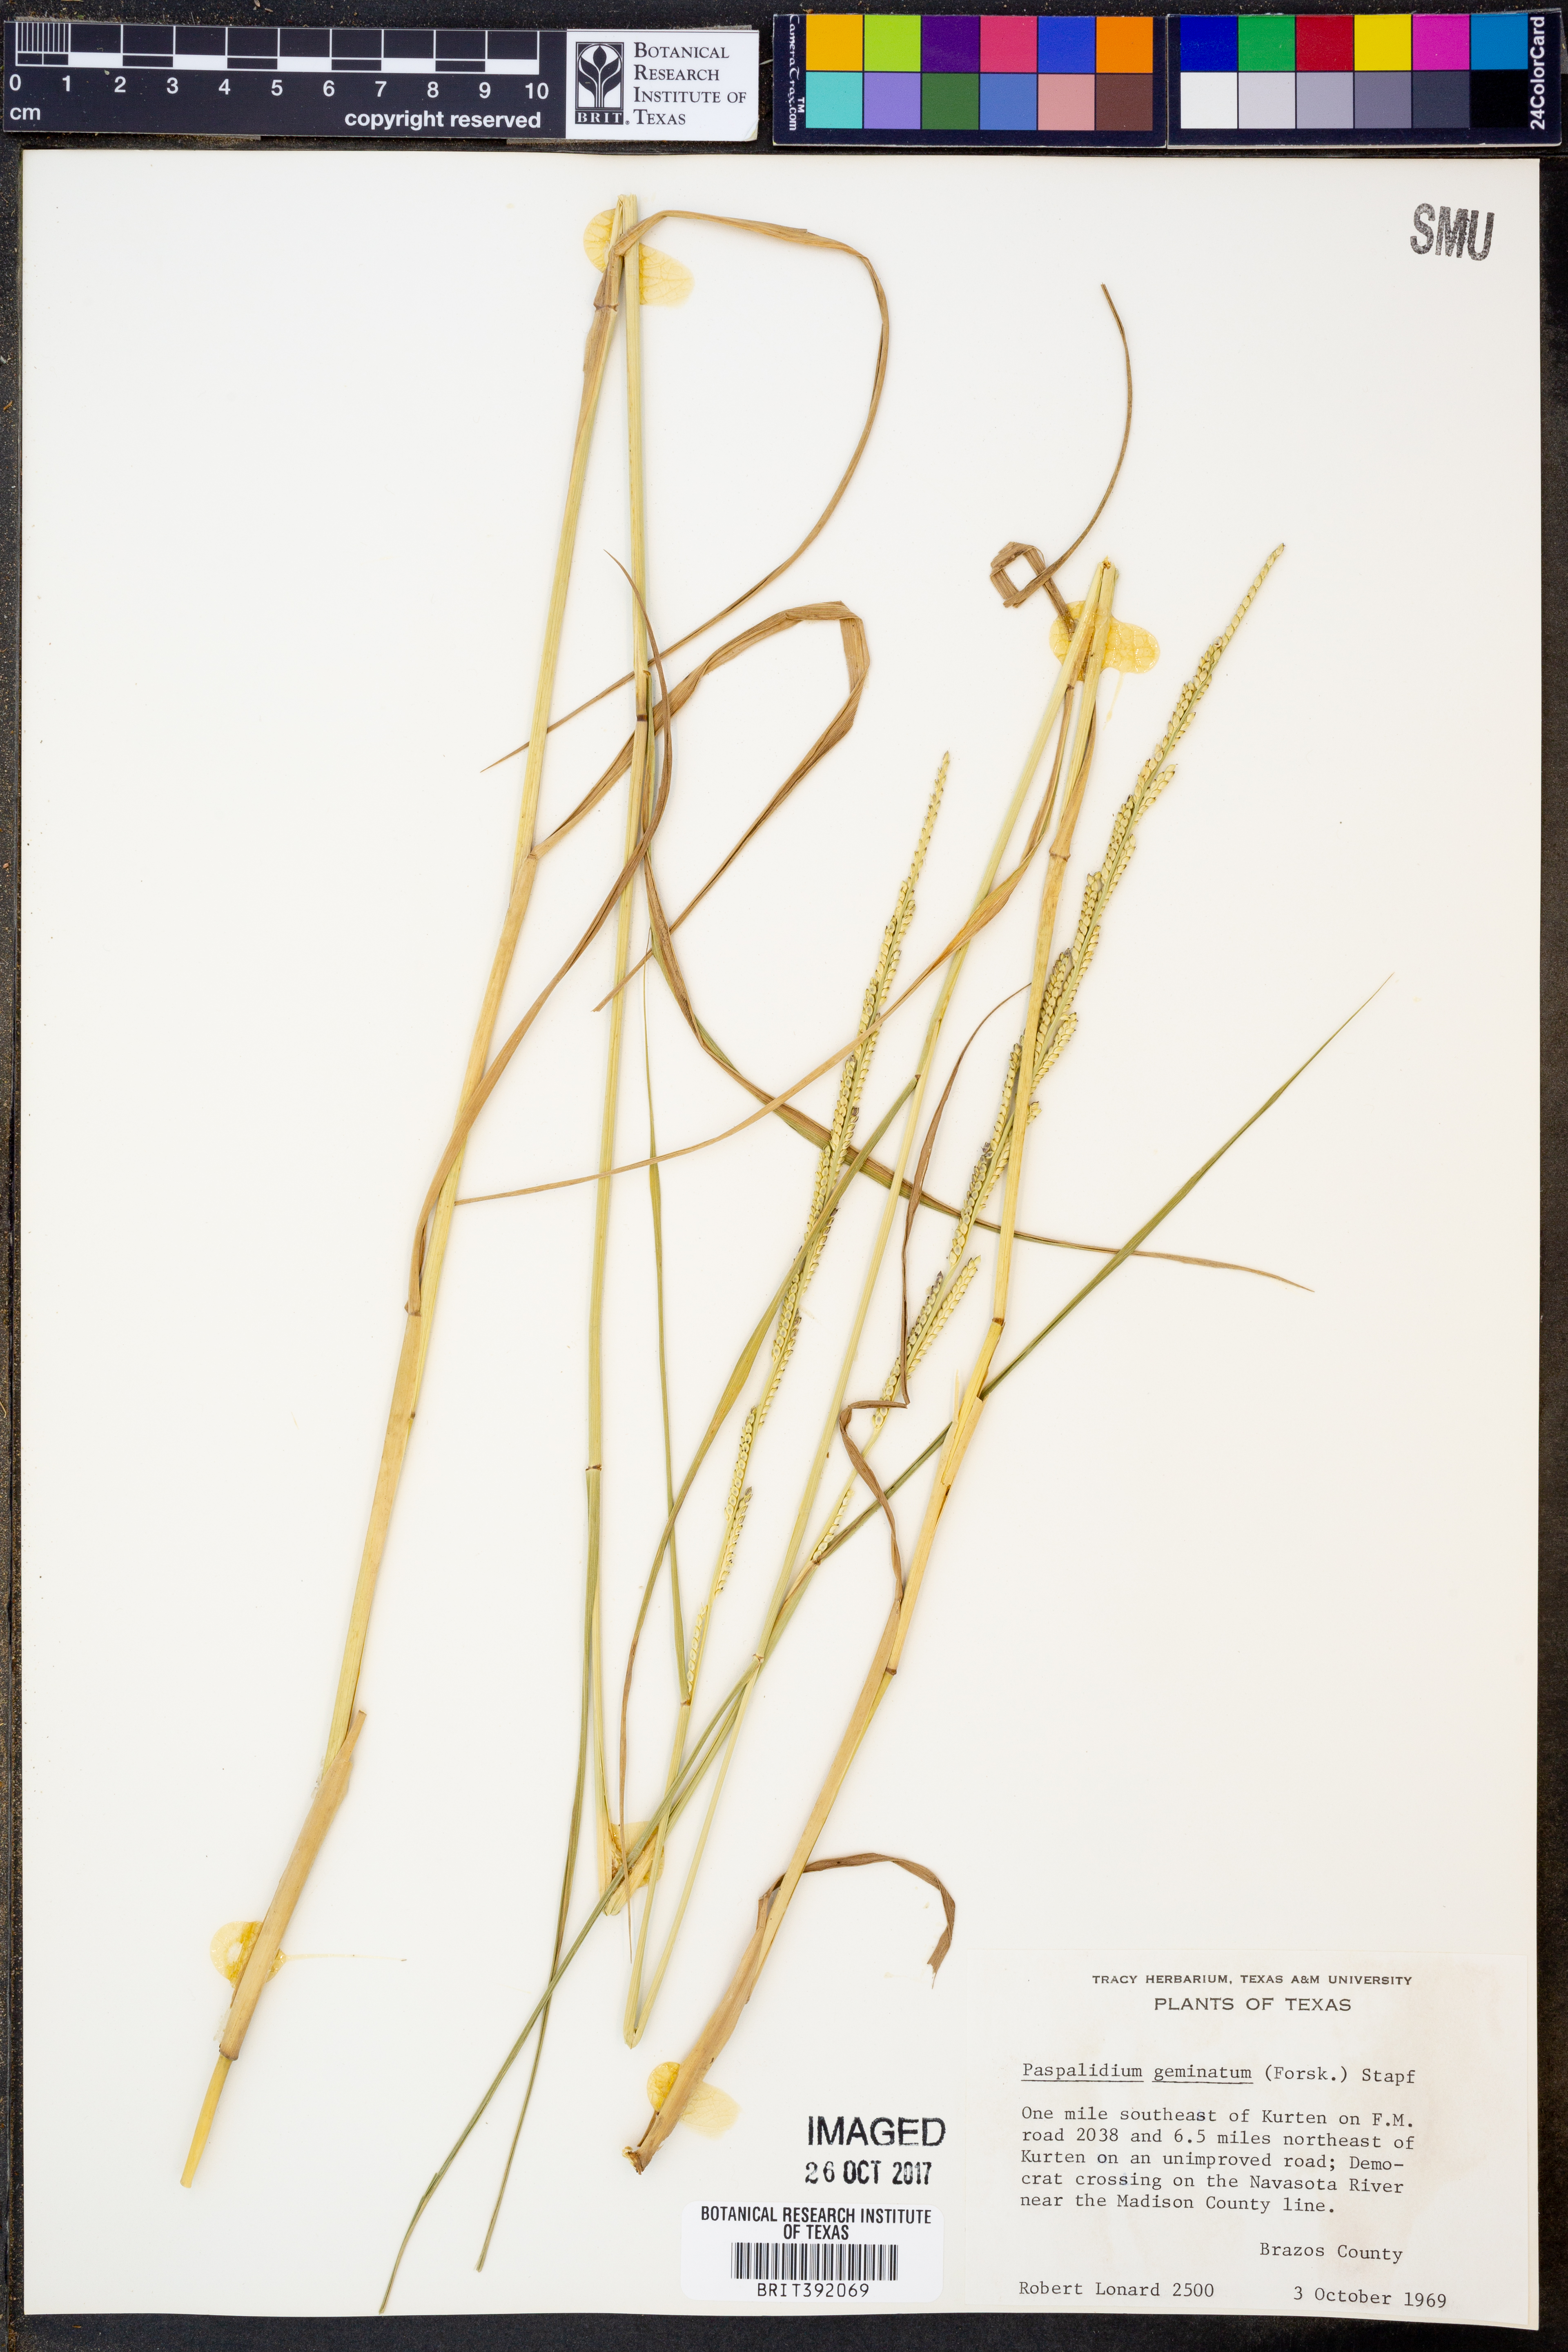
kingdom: Plantae
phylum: Tracheophyta
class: Liliopsida
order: Poales
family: Poaceae
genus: Setaria
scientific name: Setaria geminata
